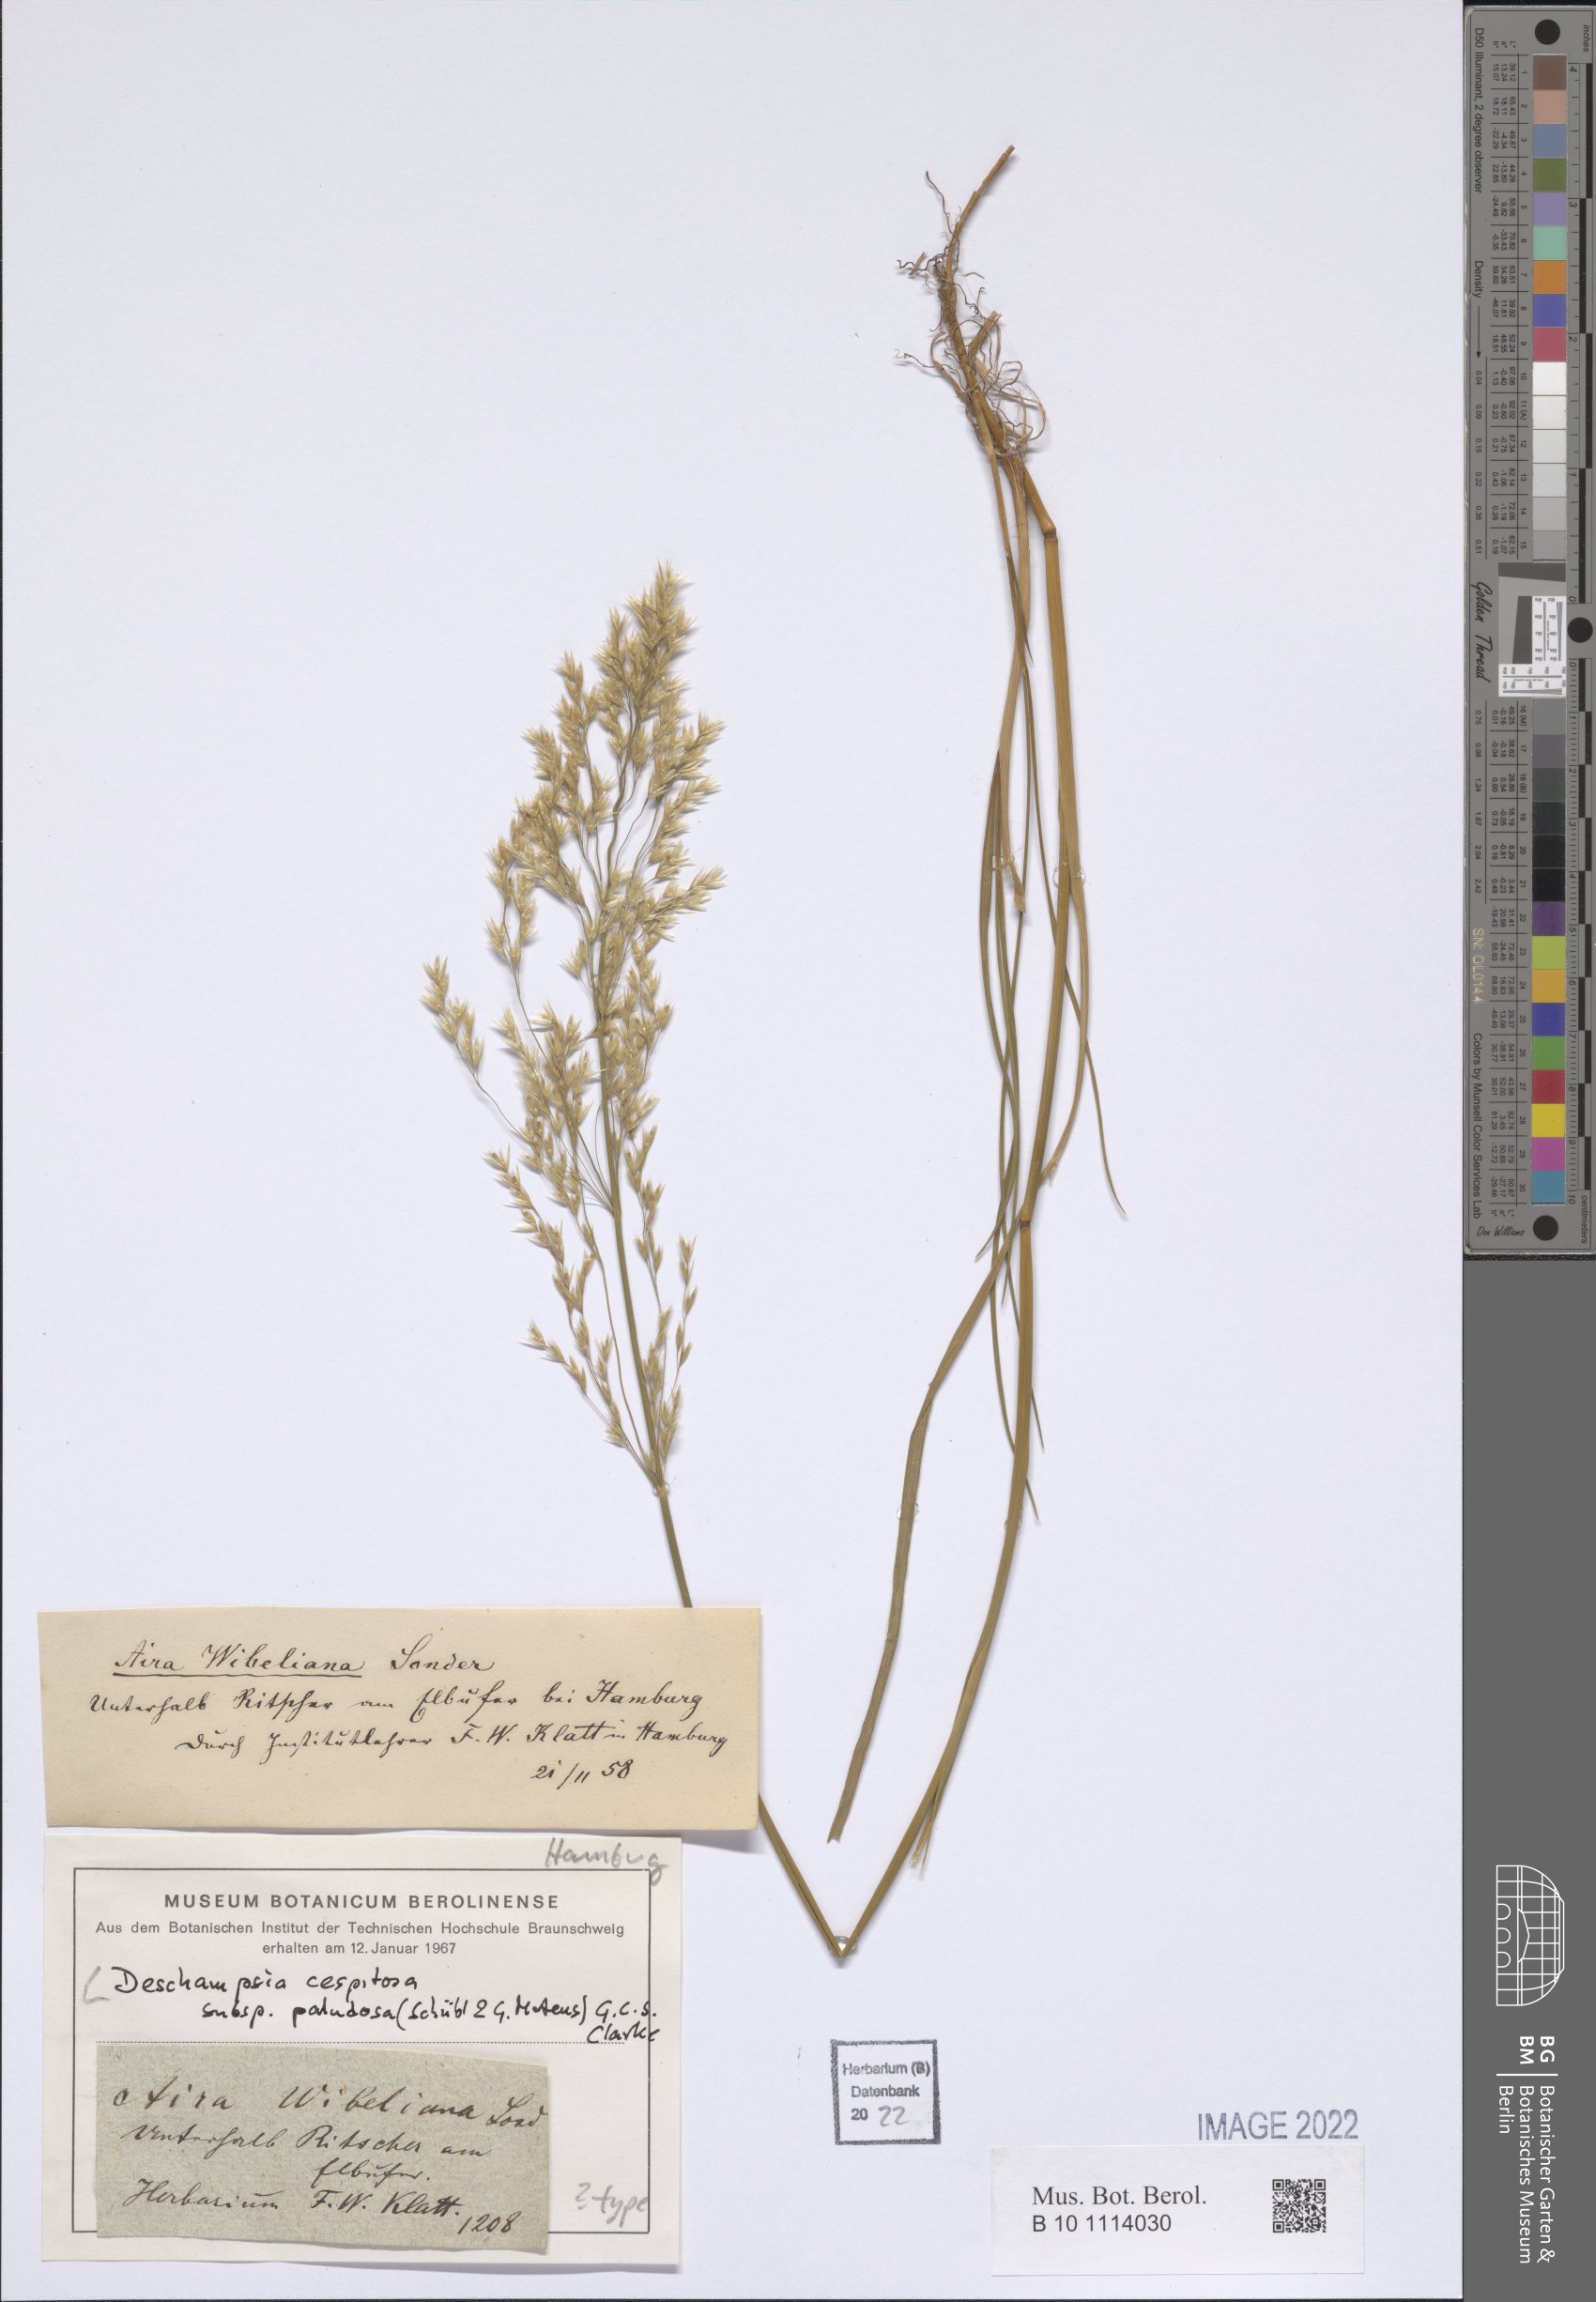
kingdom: Plantae
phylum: Tracheophyta
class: Liliopsida
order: Poales
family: Poaceae
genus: Deschampsia
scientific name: Deschampsia cespitosa
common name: Tufted hair-grass
